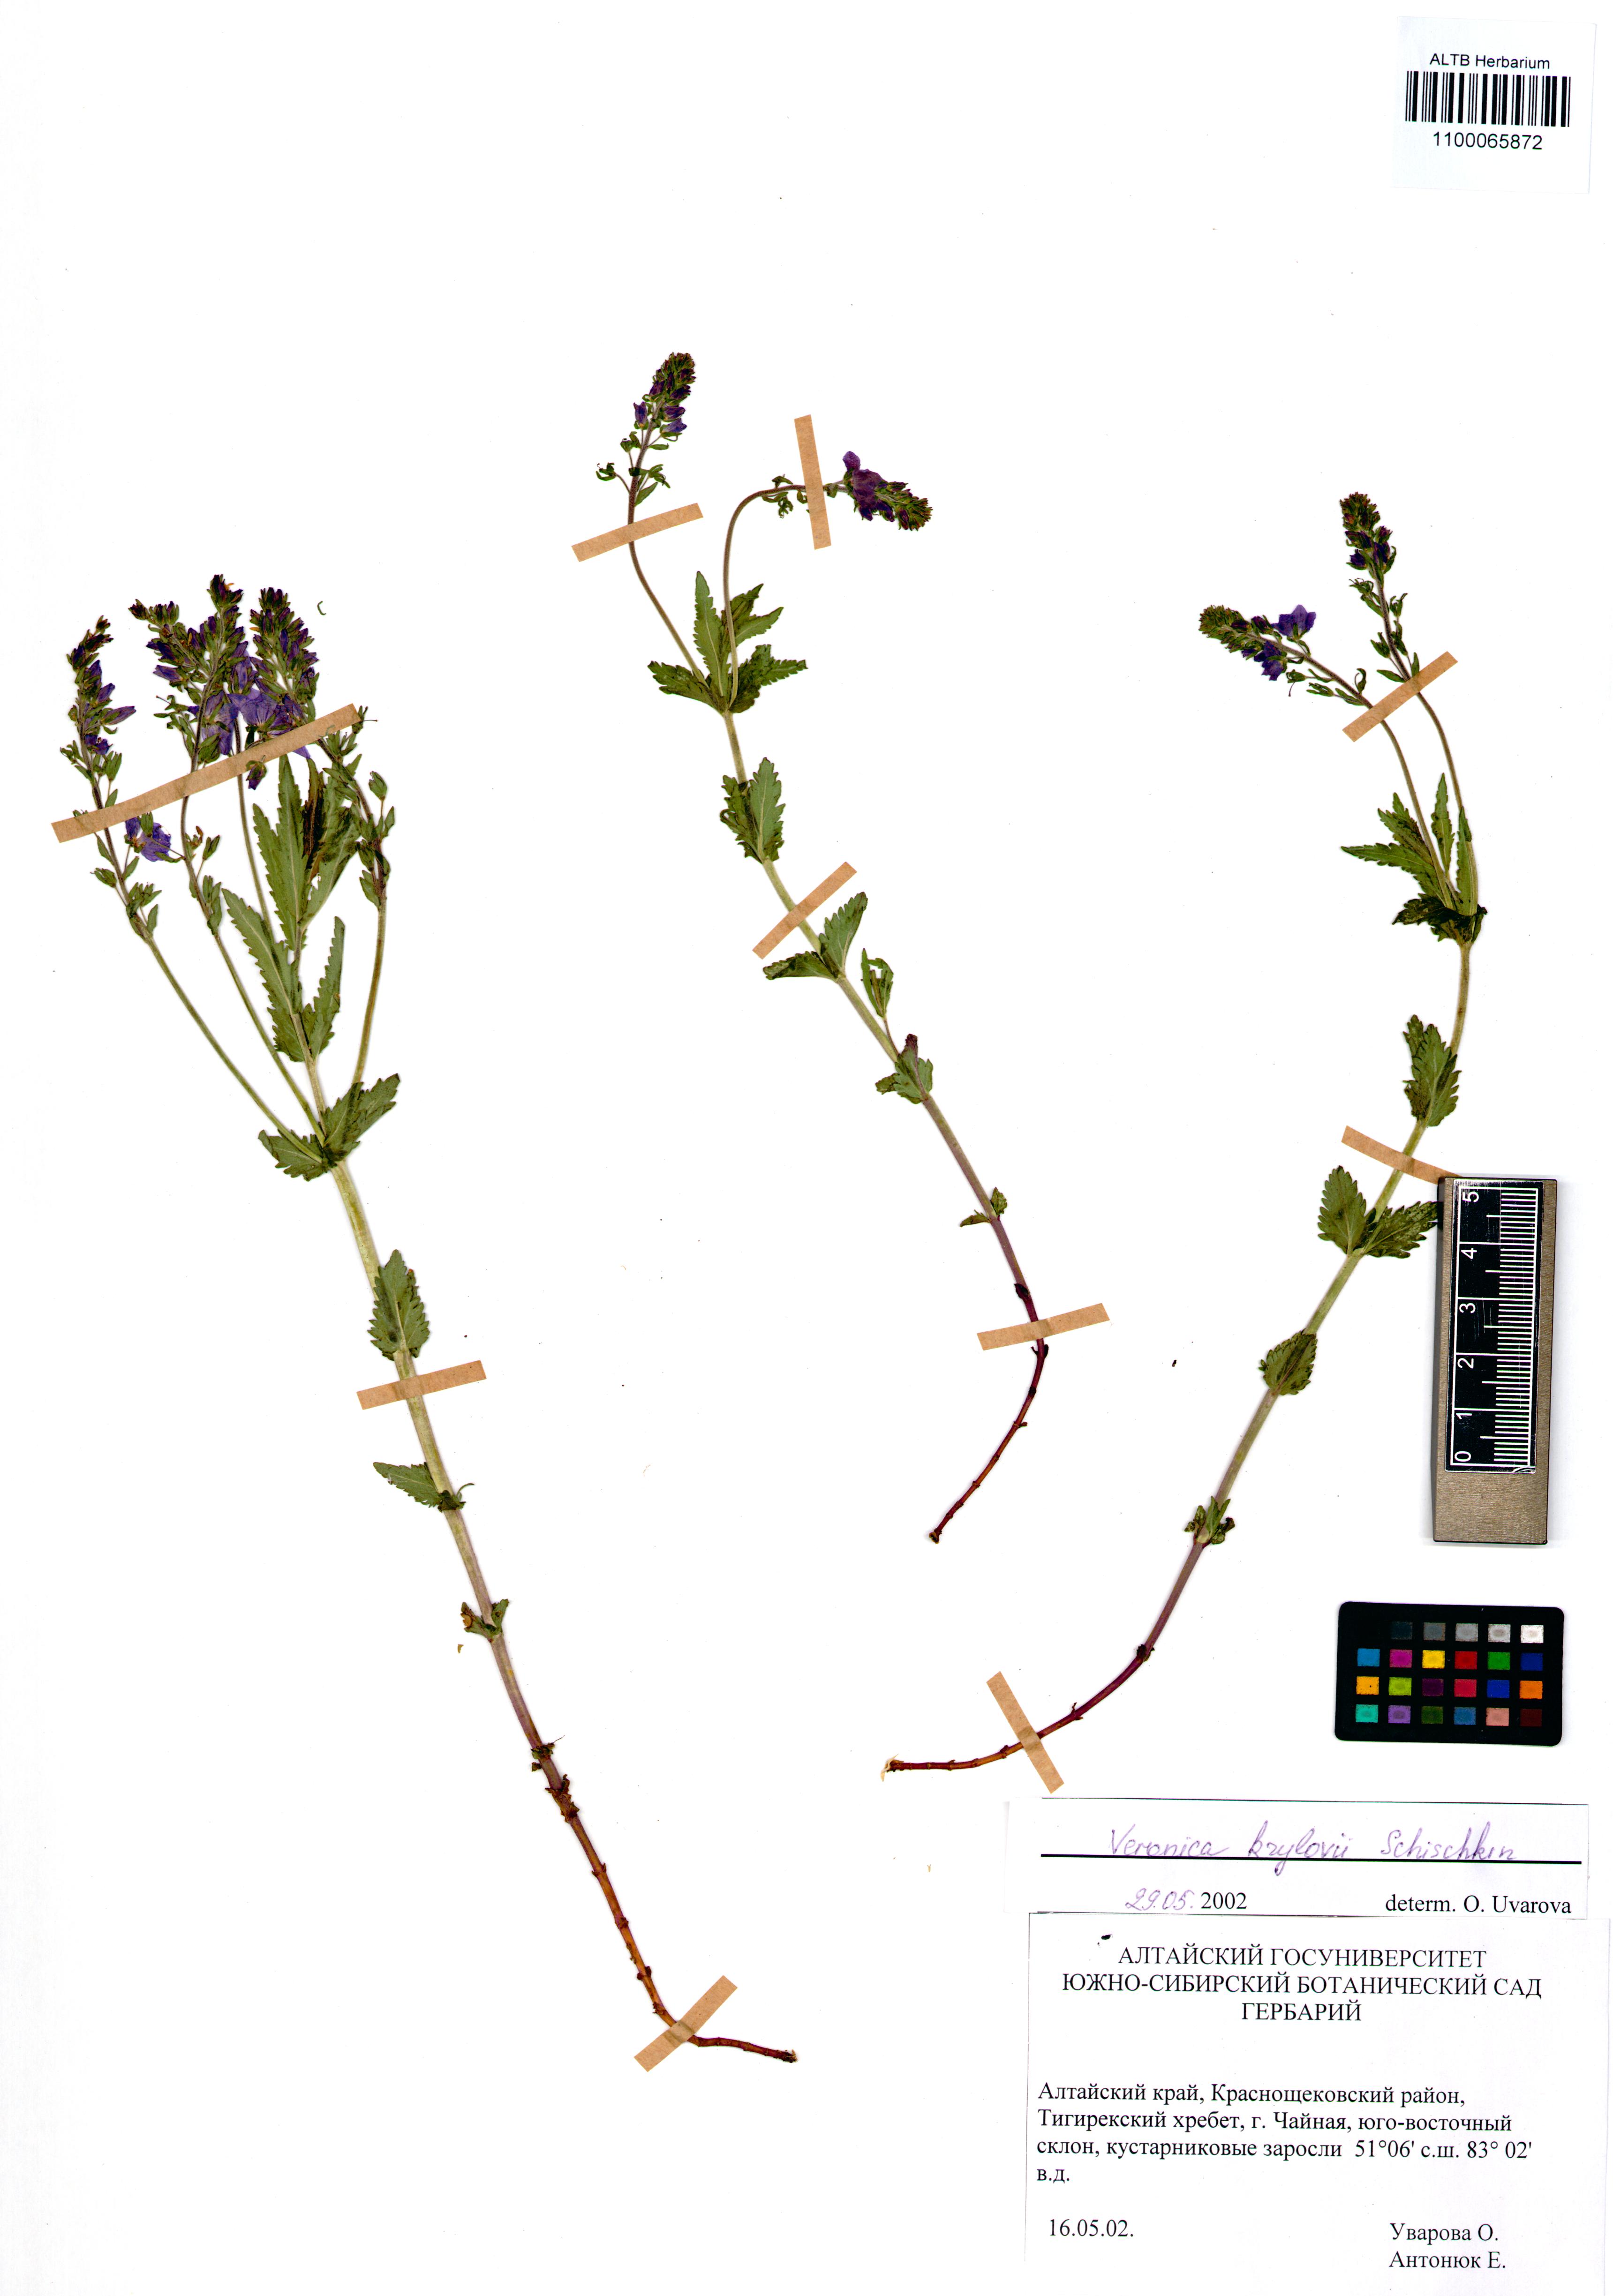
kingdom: Plantae
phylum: Tracheophyta
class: Magnoliopsida
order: Lamiales
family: Plantaginaceae
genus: Veronica
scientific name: Veronica krylovii
